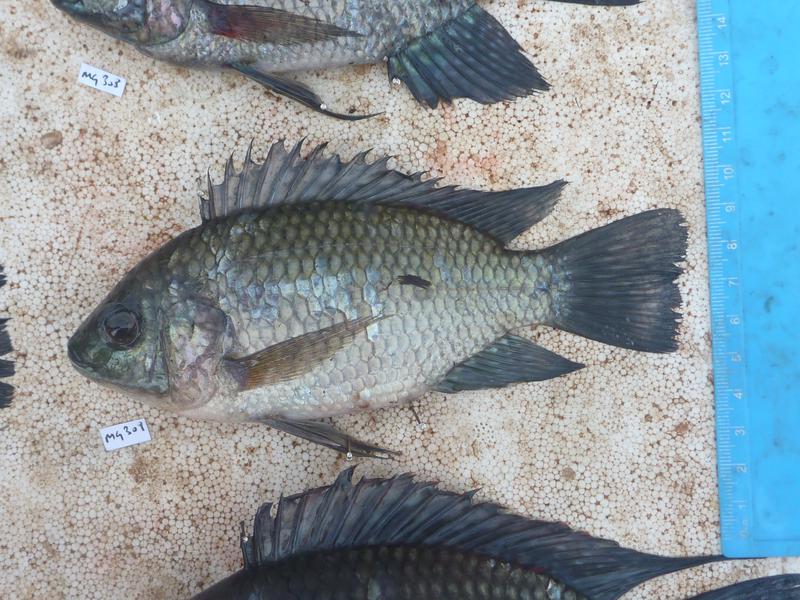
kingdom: Animalia
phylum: Chordata
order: Perciformes
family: Cichlidae
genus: Oreochromis
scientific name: Oreochromis leucostictus
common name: Blue spotted tilapia
